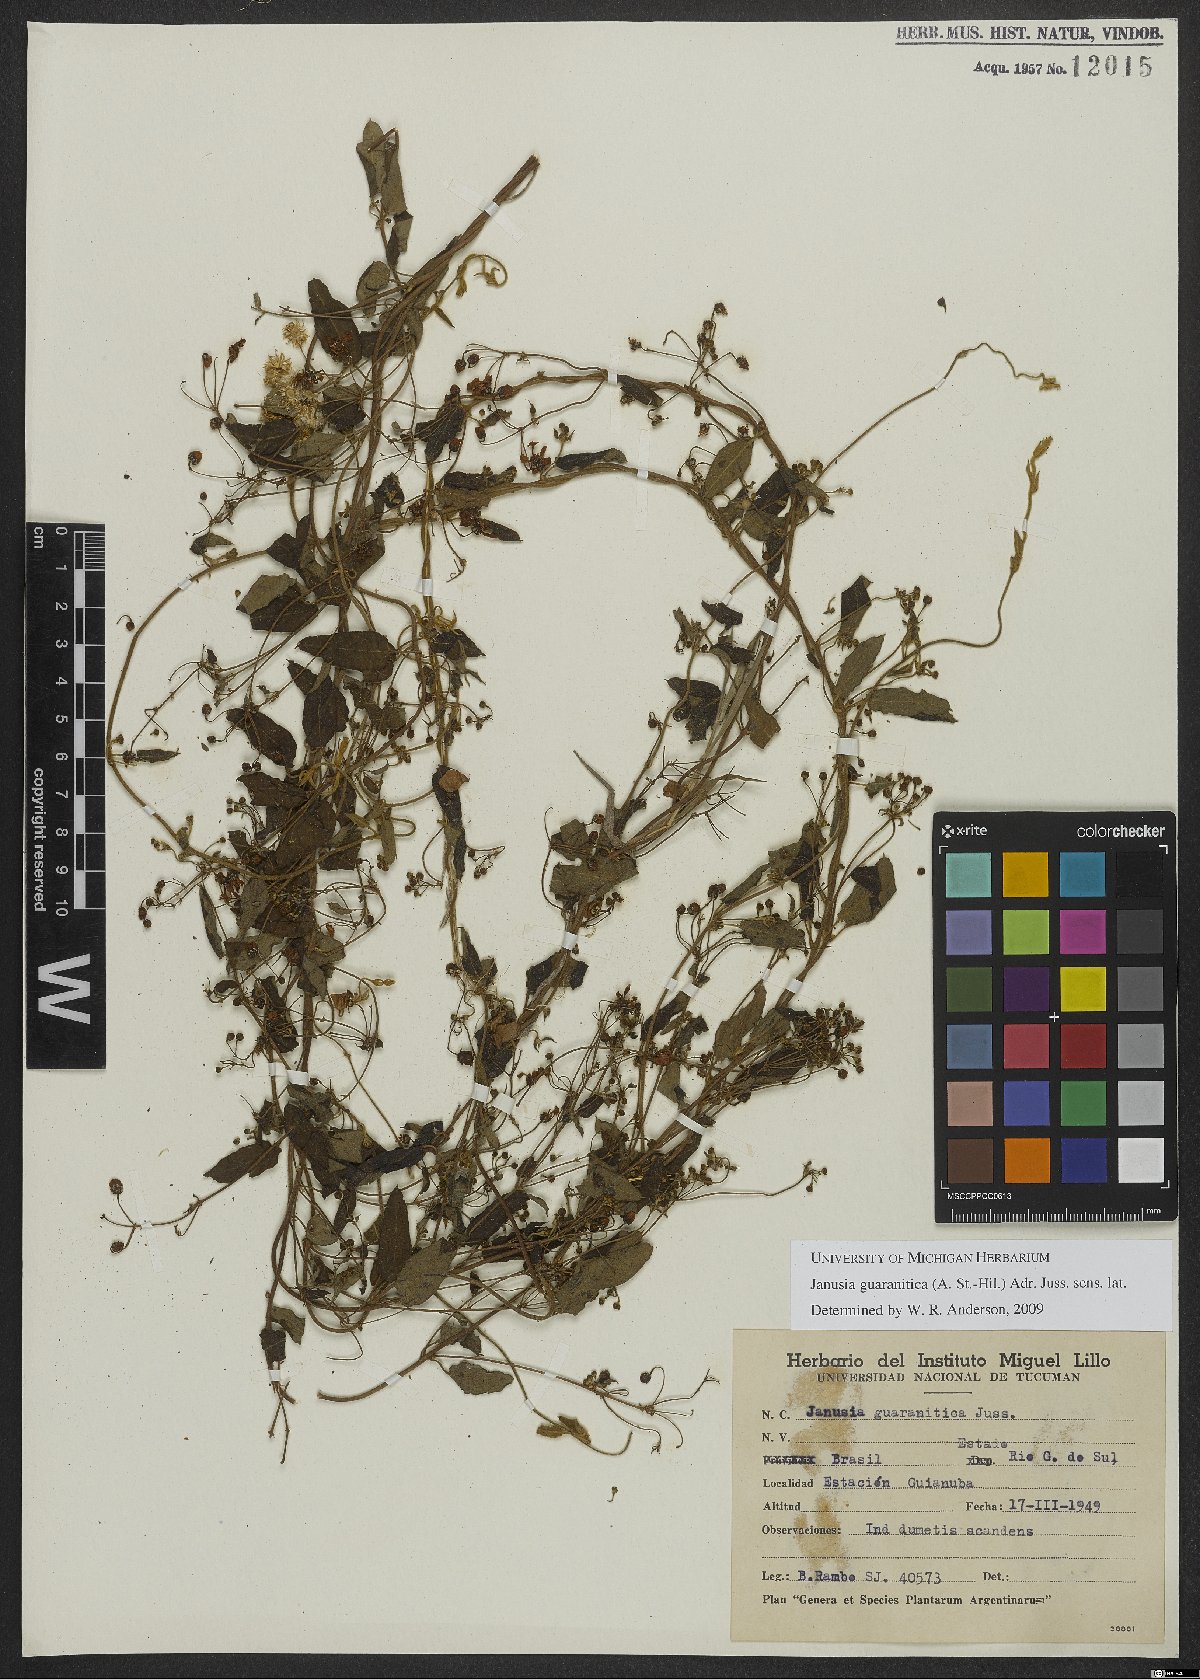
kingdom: Plantae
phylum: Tracheophyta
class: Magnoliopsida
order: Malpighiales
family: Malpighiaceae
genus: Janusia
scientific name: Janusia guaranitica
